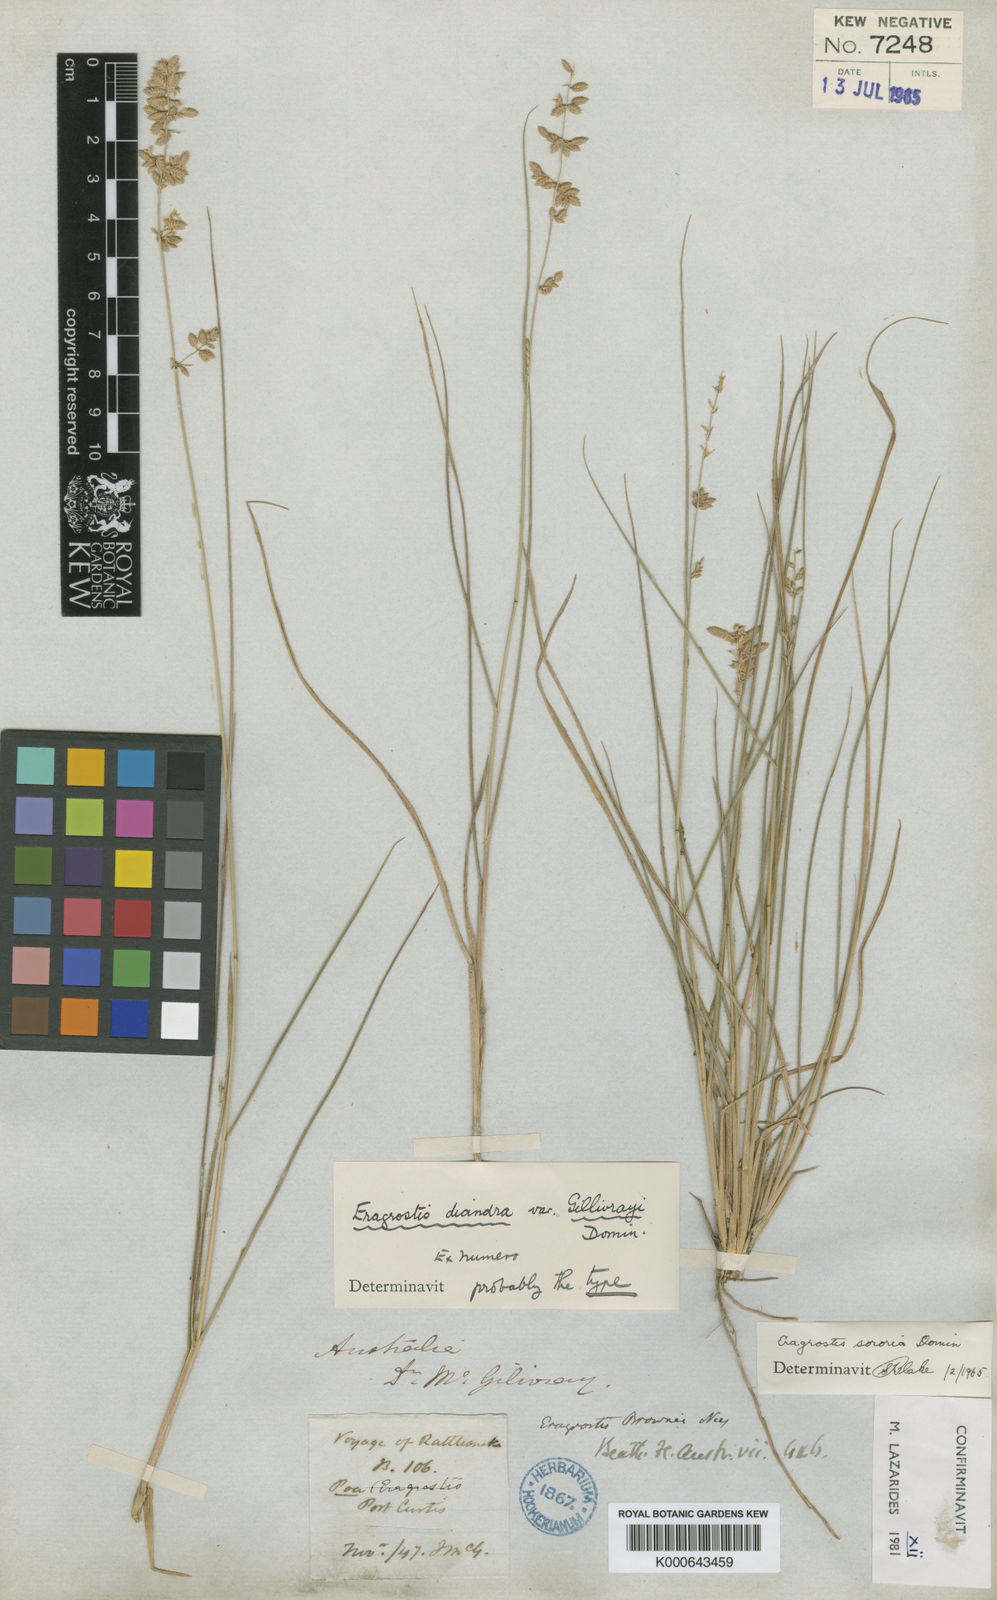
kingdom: Plantae
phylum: Tracheophyta
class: Liliopsida
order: Poales
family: Poaceae
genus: Eragrostis
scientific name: Eragrostis sororia
